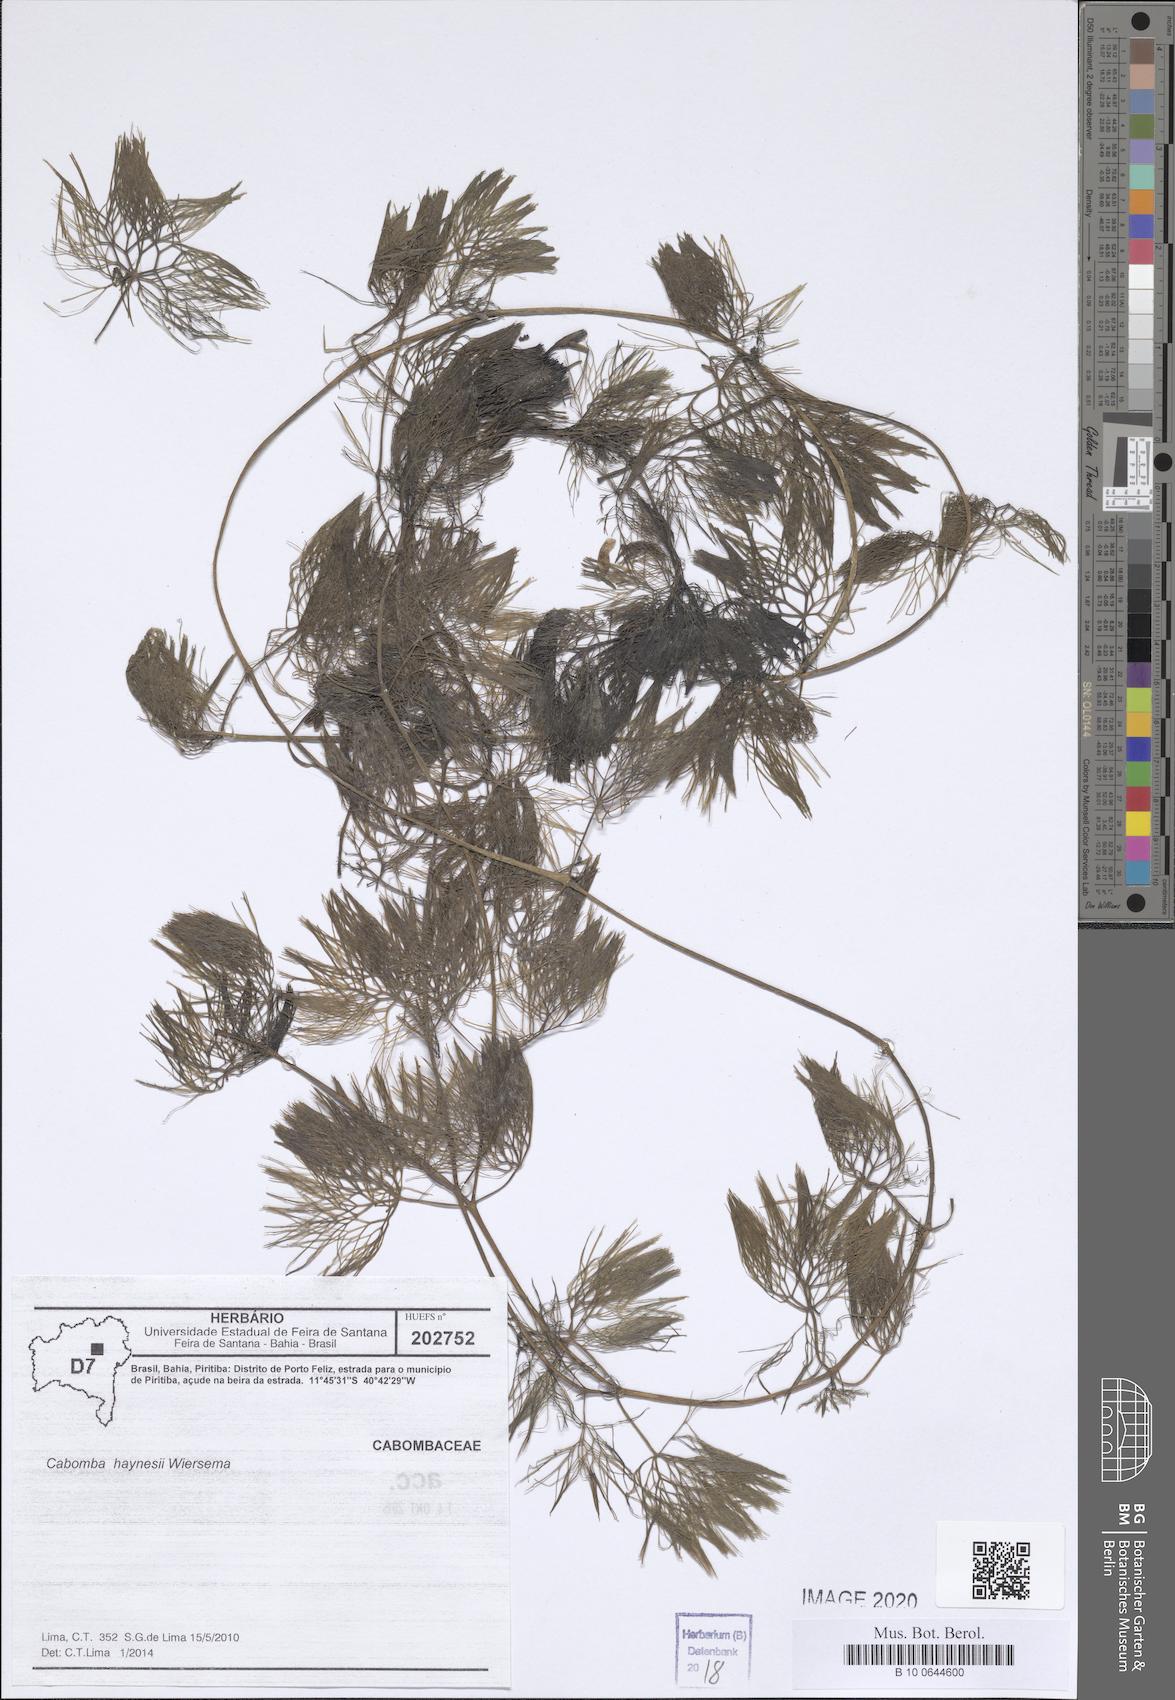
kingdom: Plantae
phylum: Tracheophyta
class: Magnoliopsida
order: Nymphaeales
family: Cabombaceae
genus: Cabomba
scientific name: Cabomba haynesii
